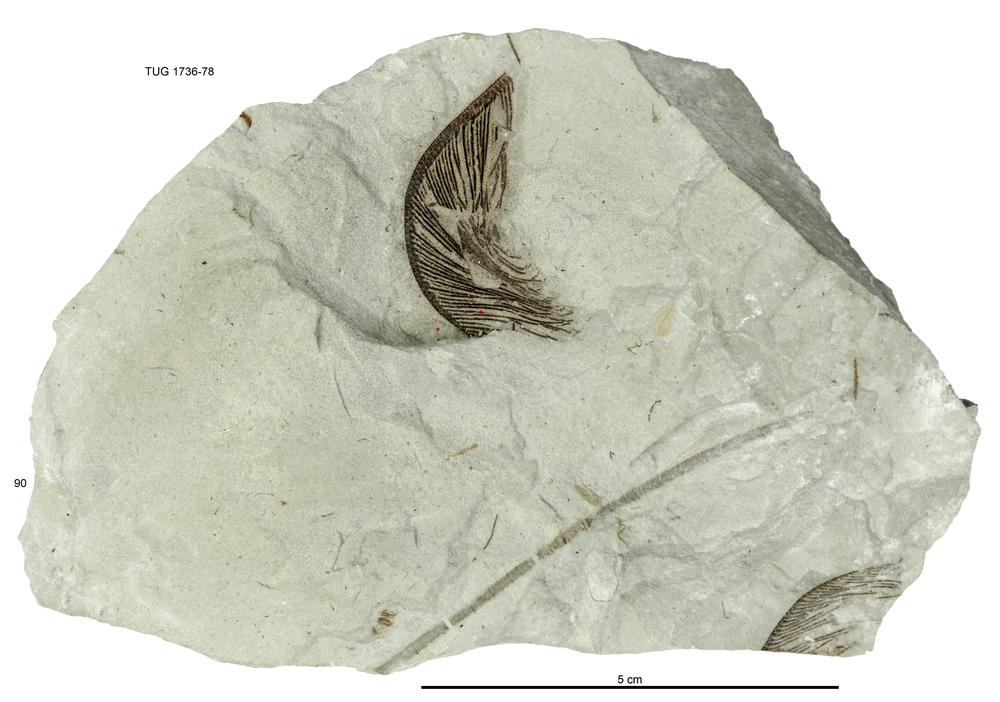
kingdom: Animalia
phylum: Echinodermata
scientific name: Echinodermata
